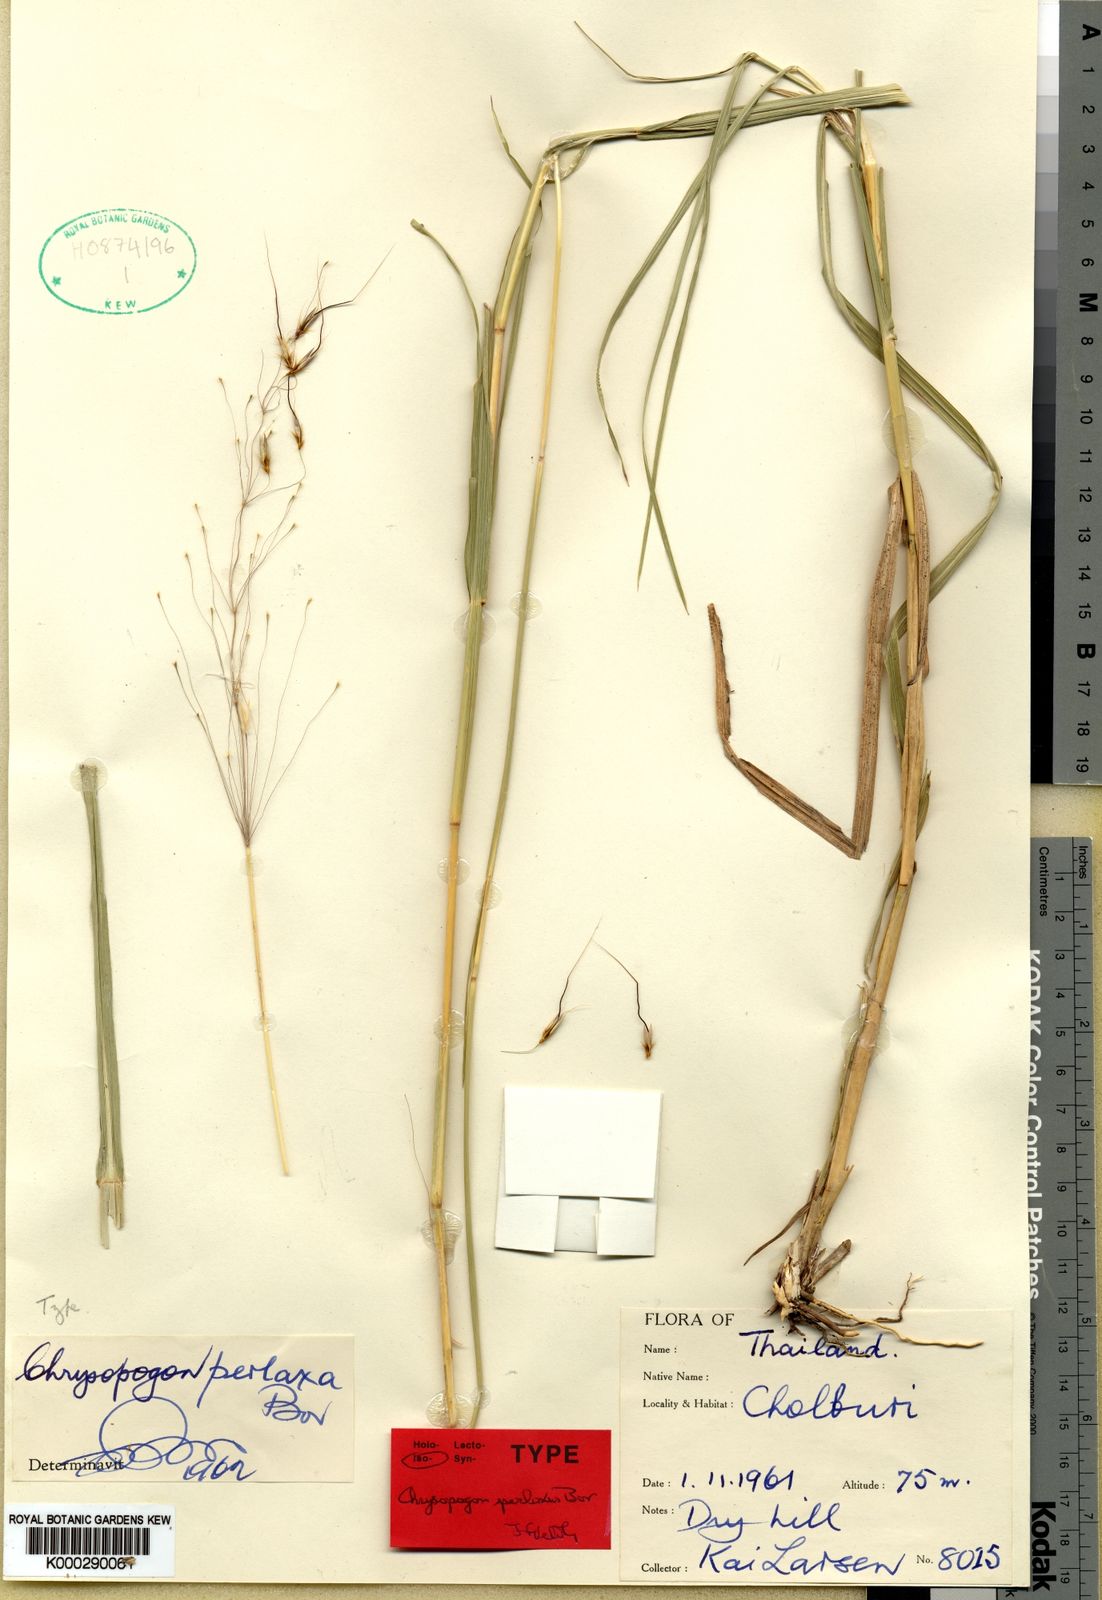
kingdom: Plantae
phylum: Tracheophyta
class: Liliopsida
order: Poales
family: Poaceae
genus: Chrysopogon
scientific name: Chrysopogon perlaxus
